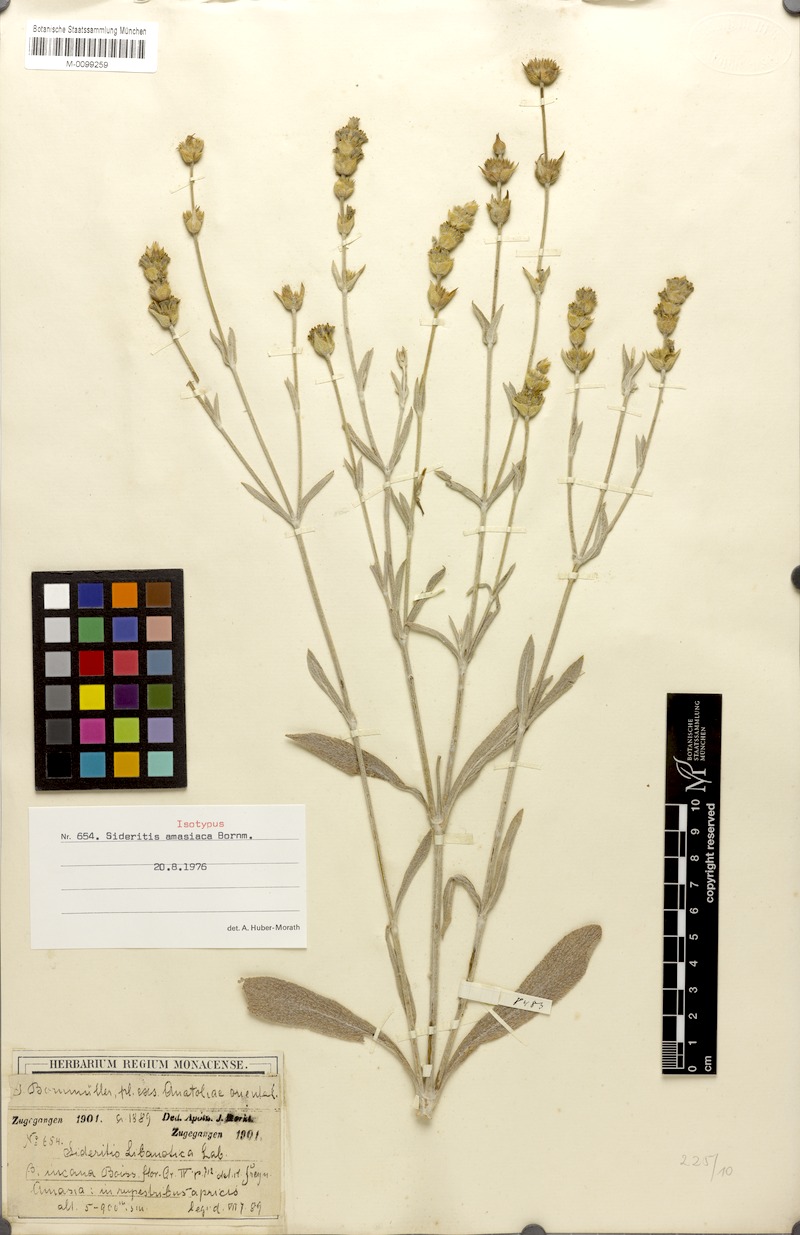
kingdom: Plantae
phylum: Tracheophyta
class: Magnoliopsida
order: Lamiales
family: Lamiaceae
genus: Sideritis
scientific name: Sideritis amasiaca
